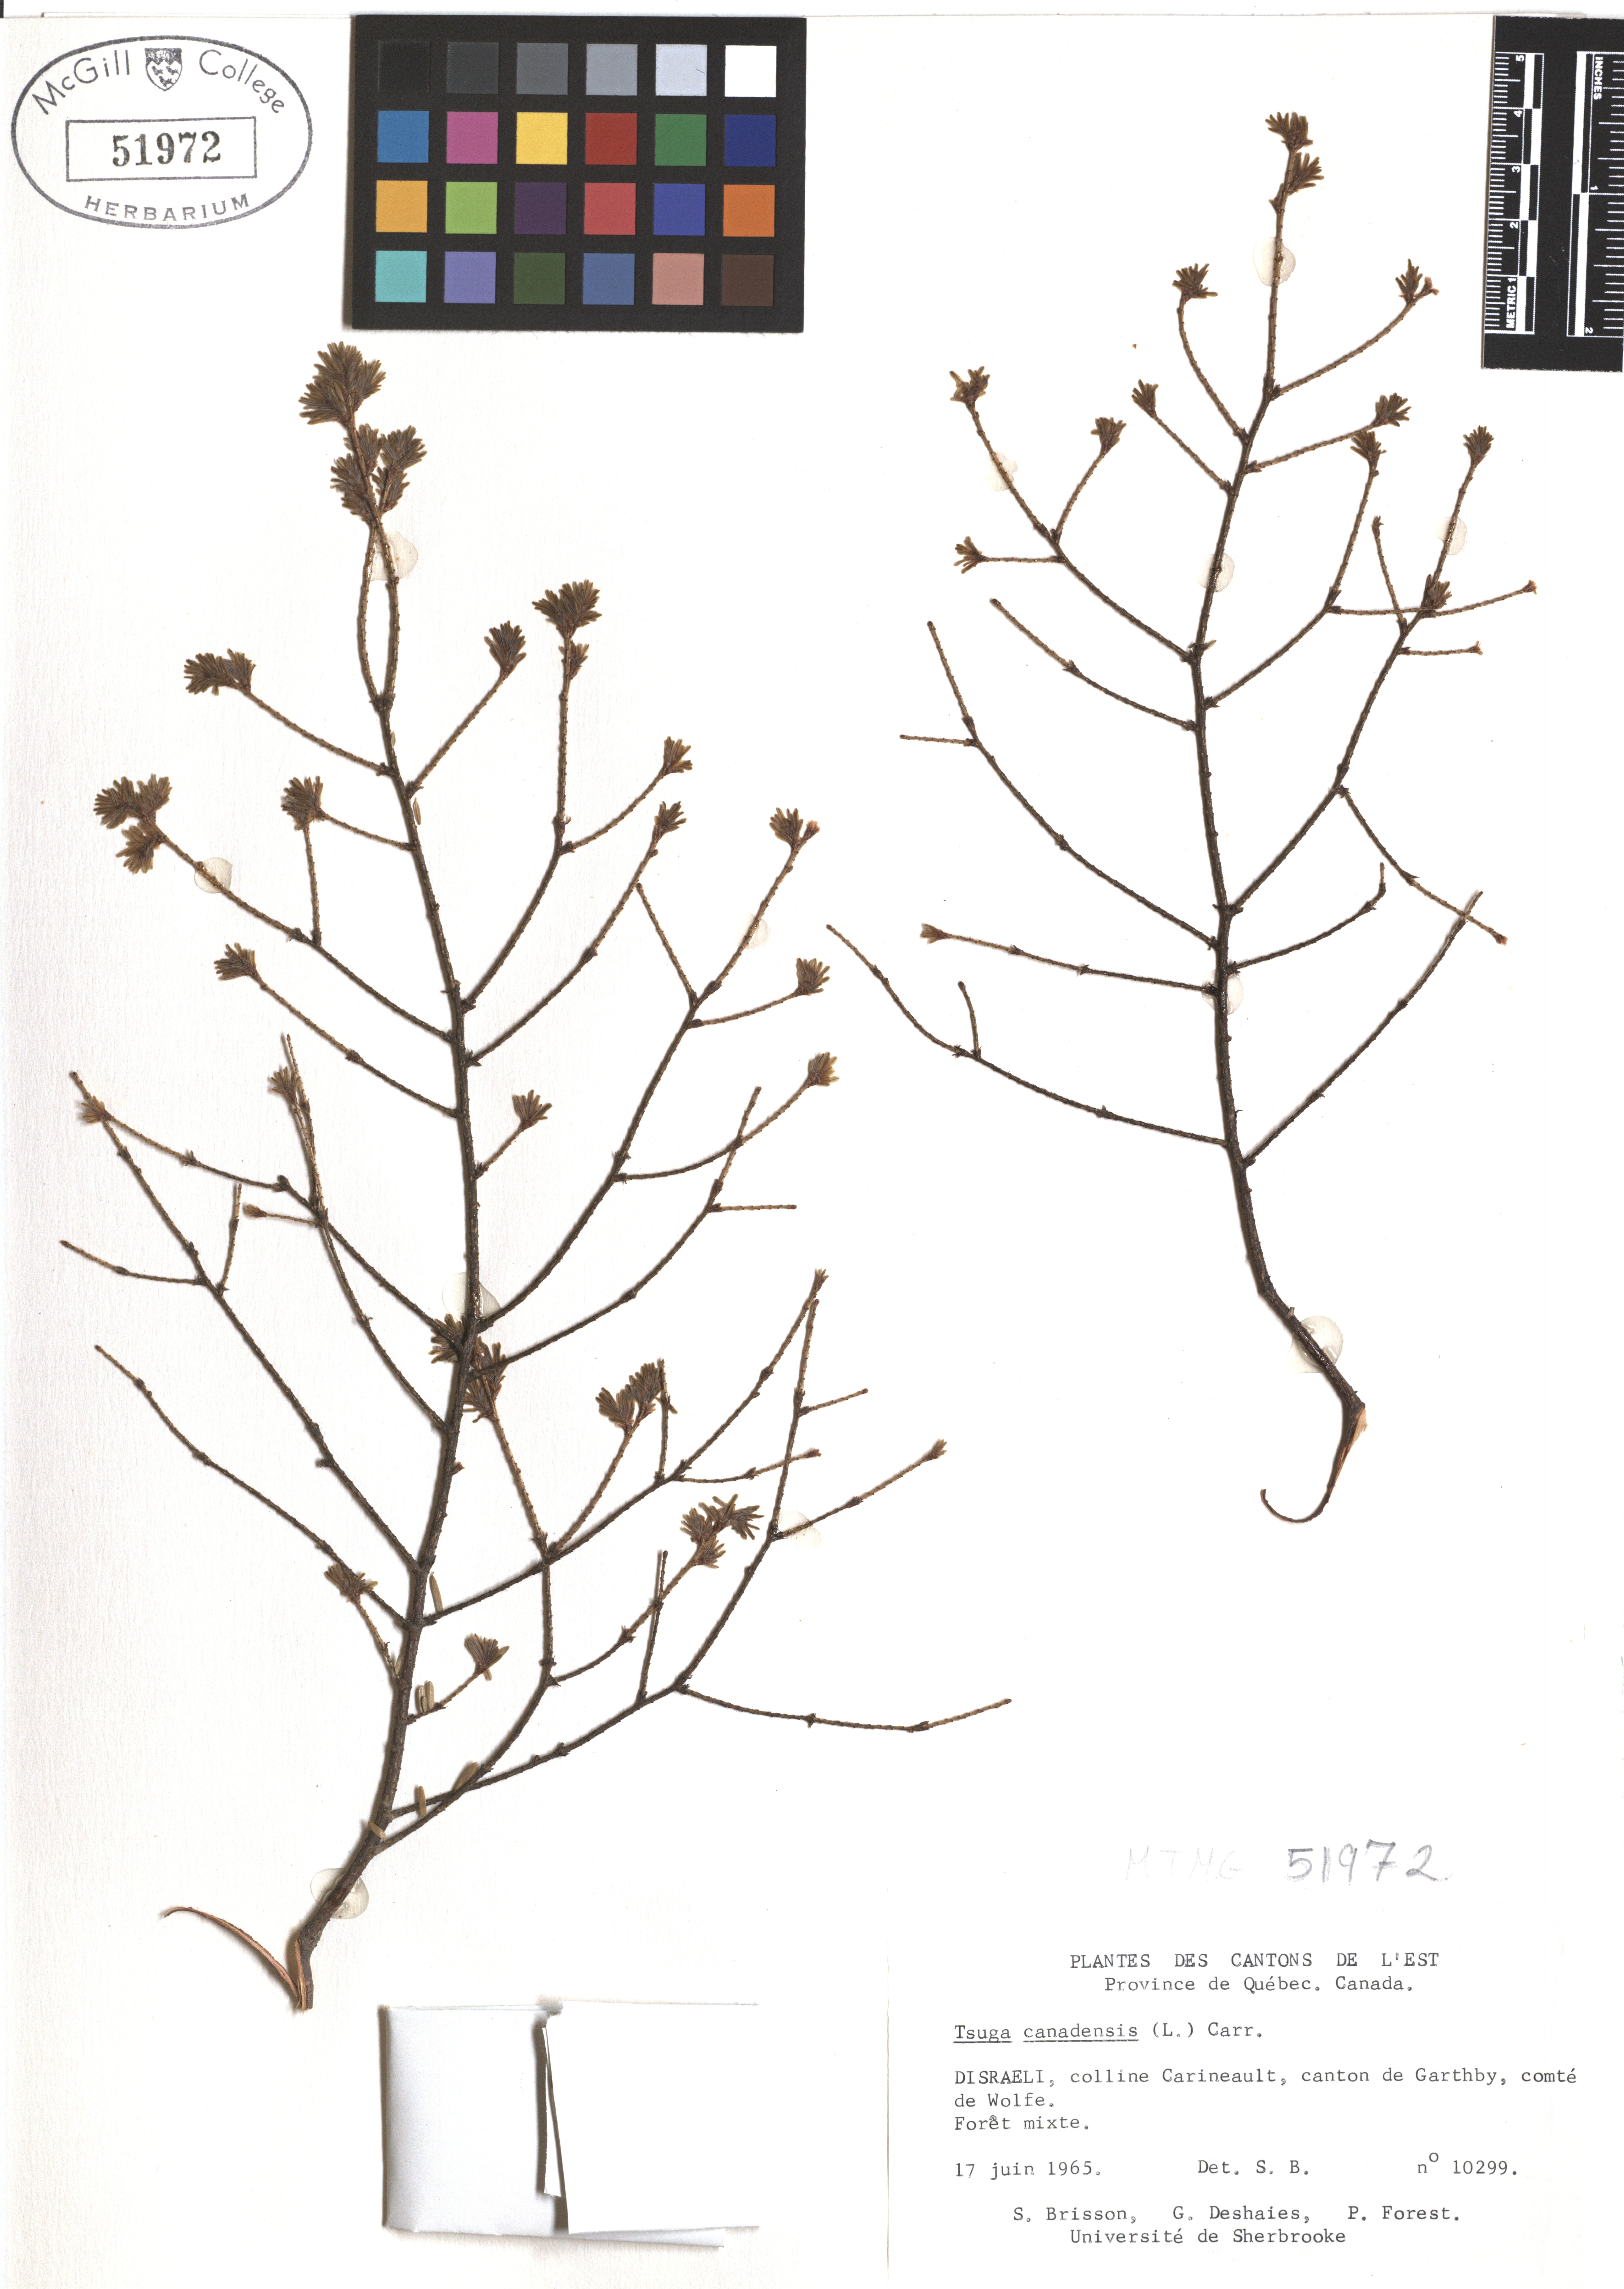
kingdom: Plantae
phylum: Tracheophyta
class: Pinopsida
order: Pinales
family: Pinaceae
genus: Tsuga
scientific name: Tsuga canadensis
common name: Eastern hemlock
